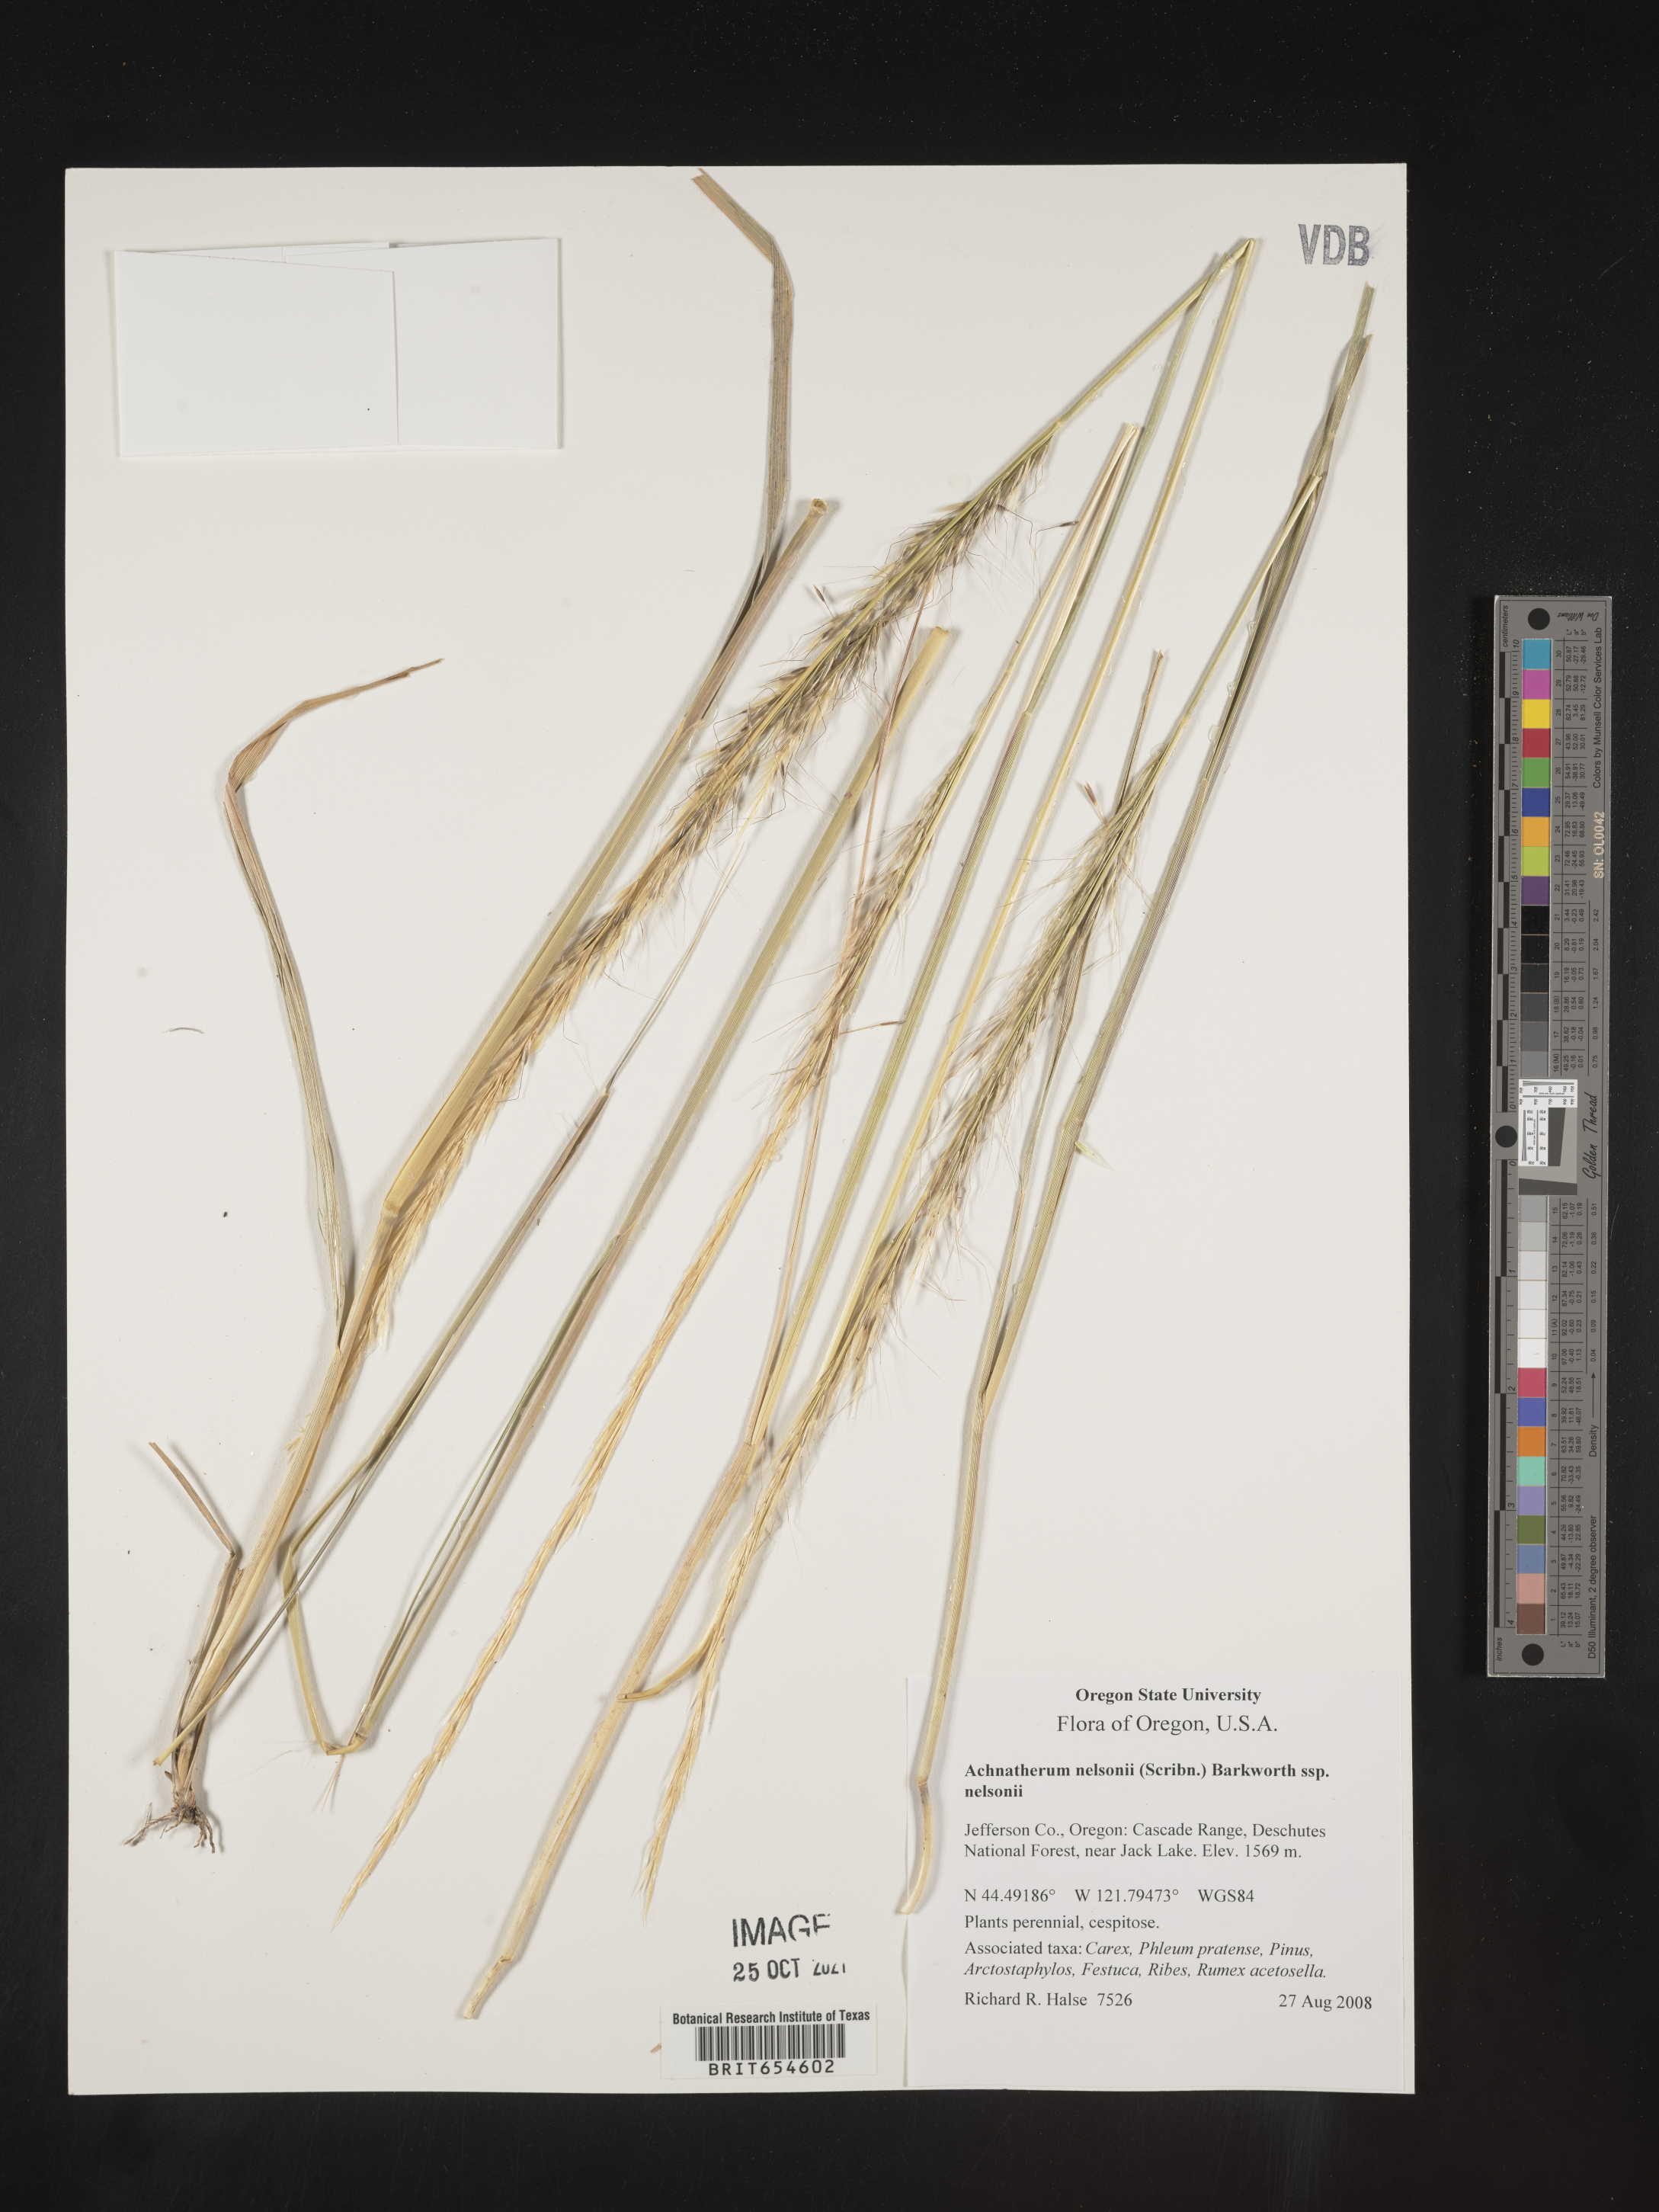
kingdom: Plantae
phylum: Tracheophyta
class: Liliopsida
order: Poales
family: Poaceae
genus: Achnatherum
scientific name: Achnatherum
